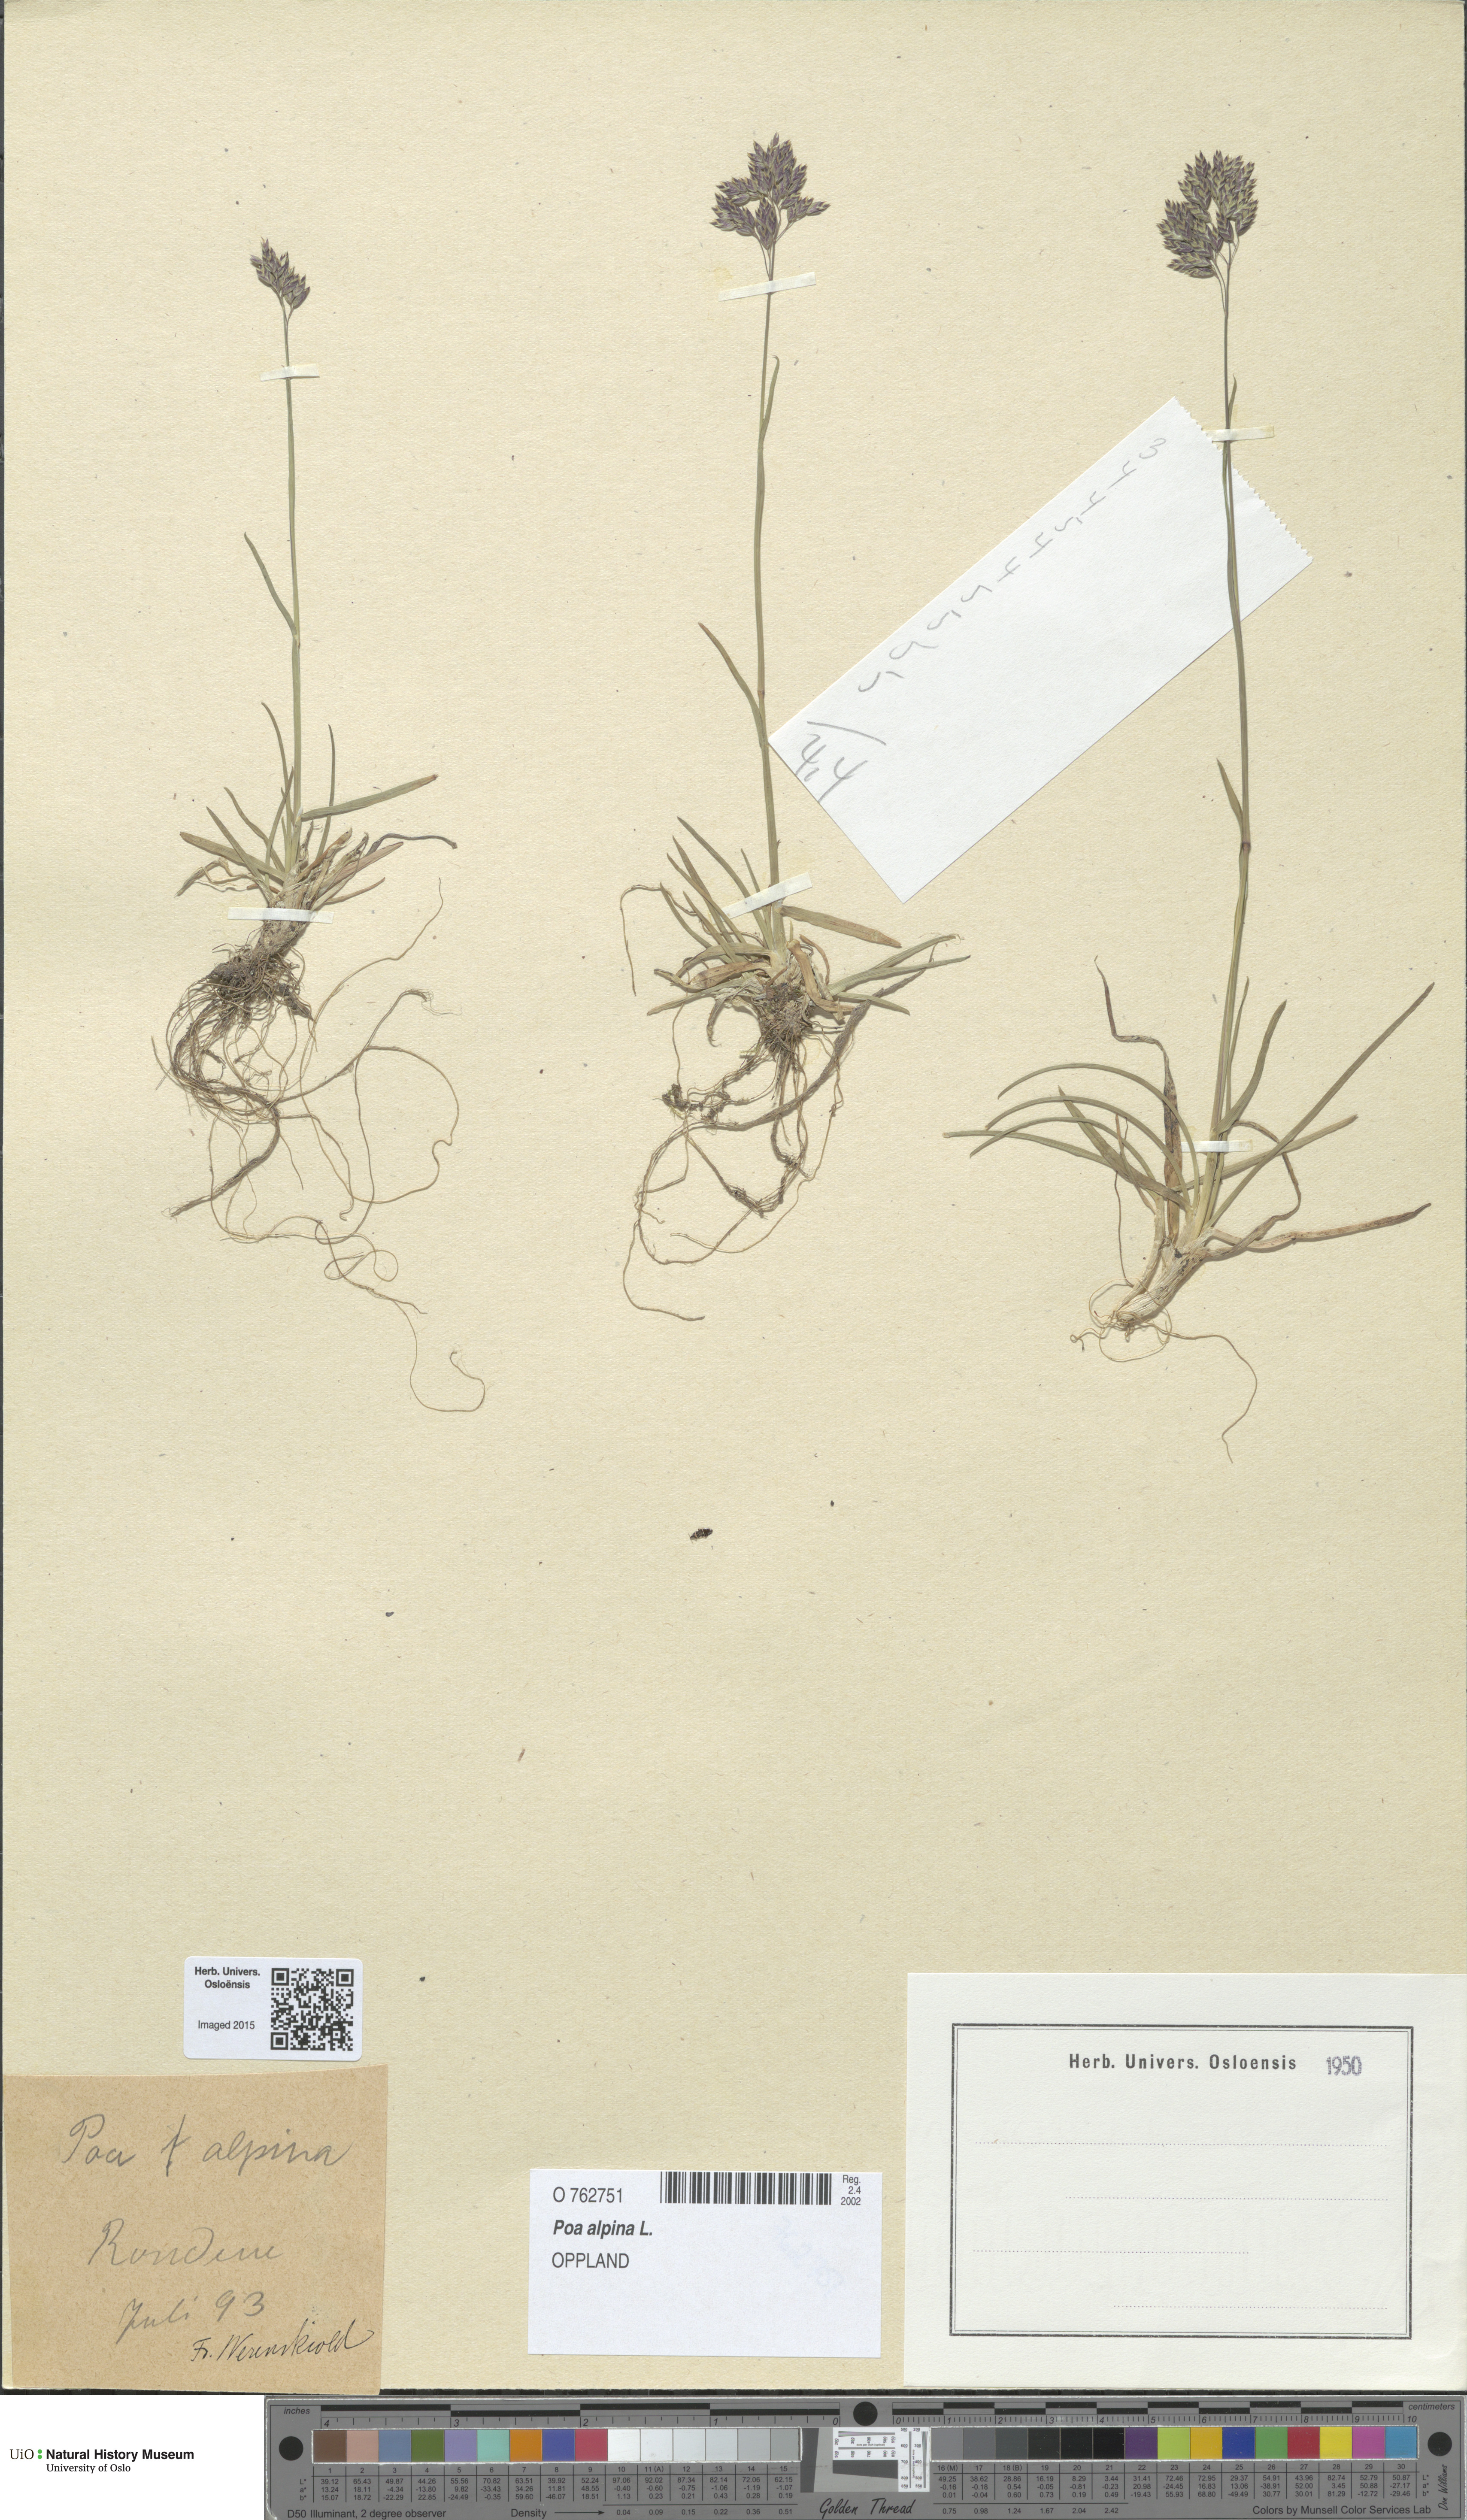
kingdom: Plantae
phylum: Tracheophyta
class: Liliopsida
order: Poales
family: Poaceae
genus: Poa
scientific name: Poa alpina
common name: Alpine bluegrass
